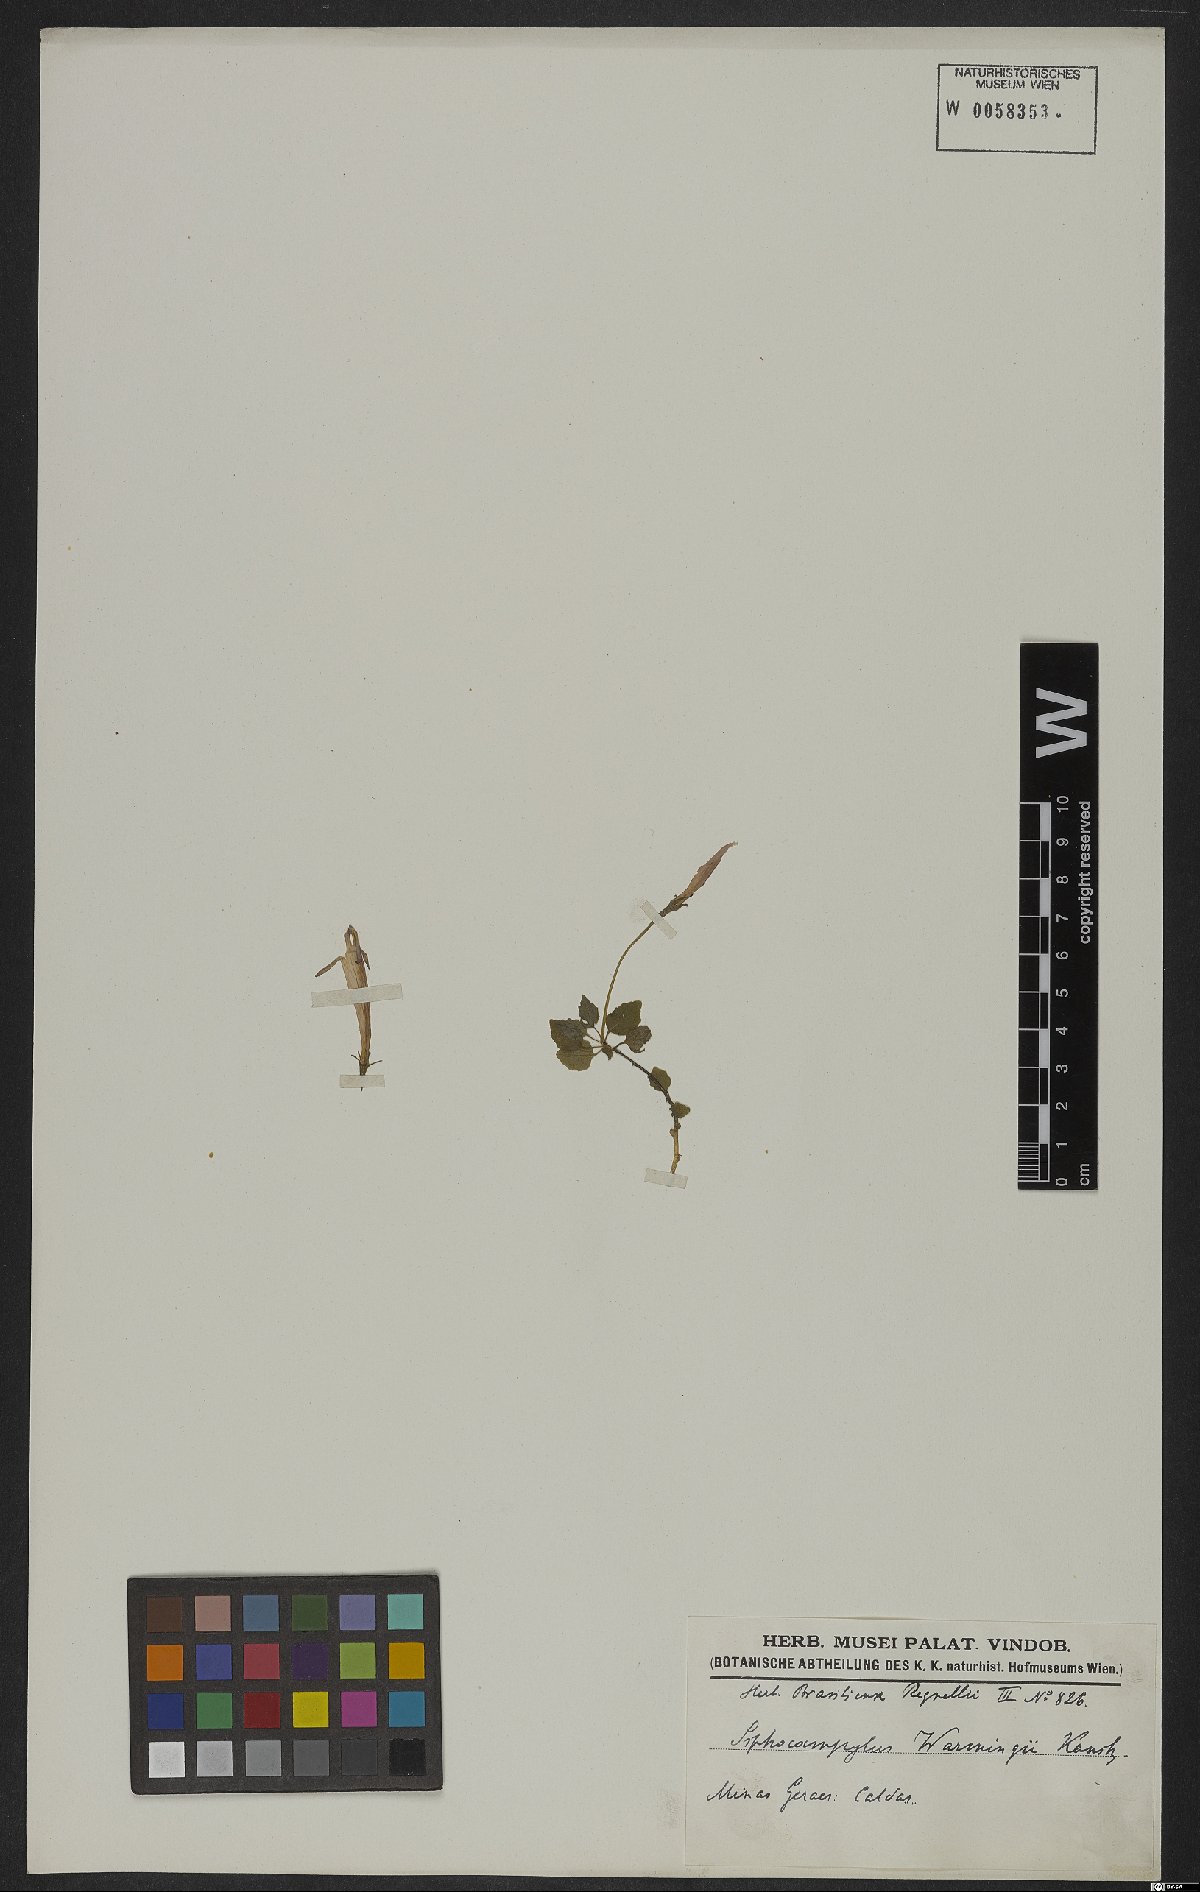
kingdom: Plantae
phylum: Tracheophyta
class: Magnoliopsida
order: Asterales
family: Campanulaceae
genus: Siphocampylus
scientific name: Siphocampylus warmingii
